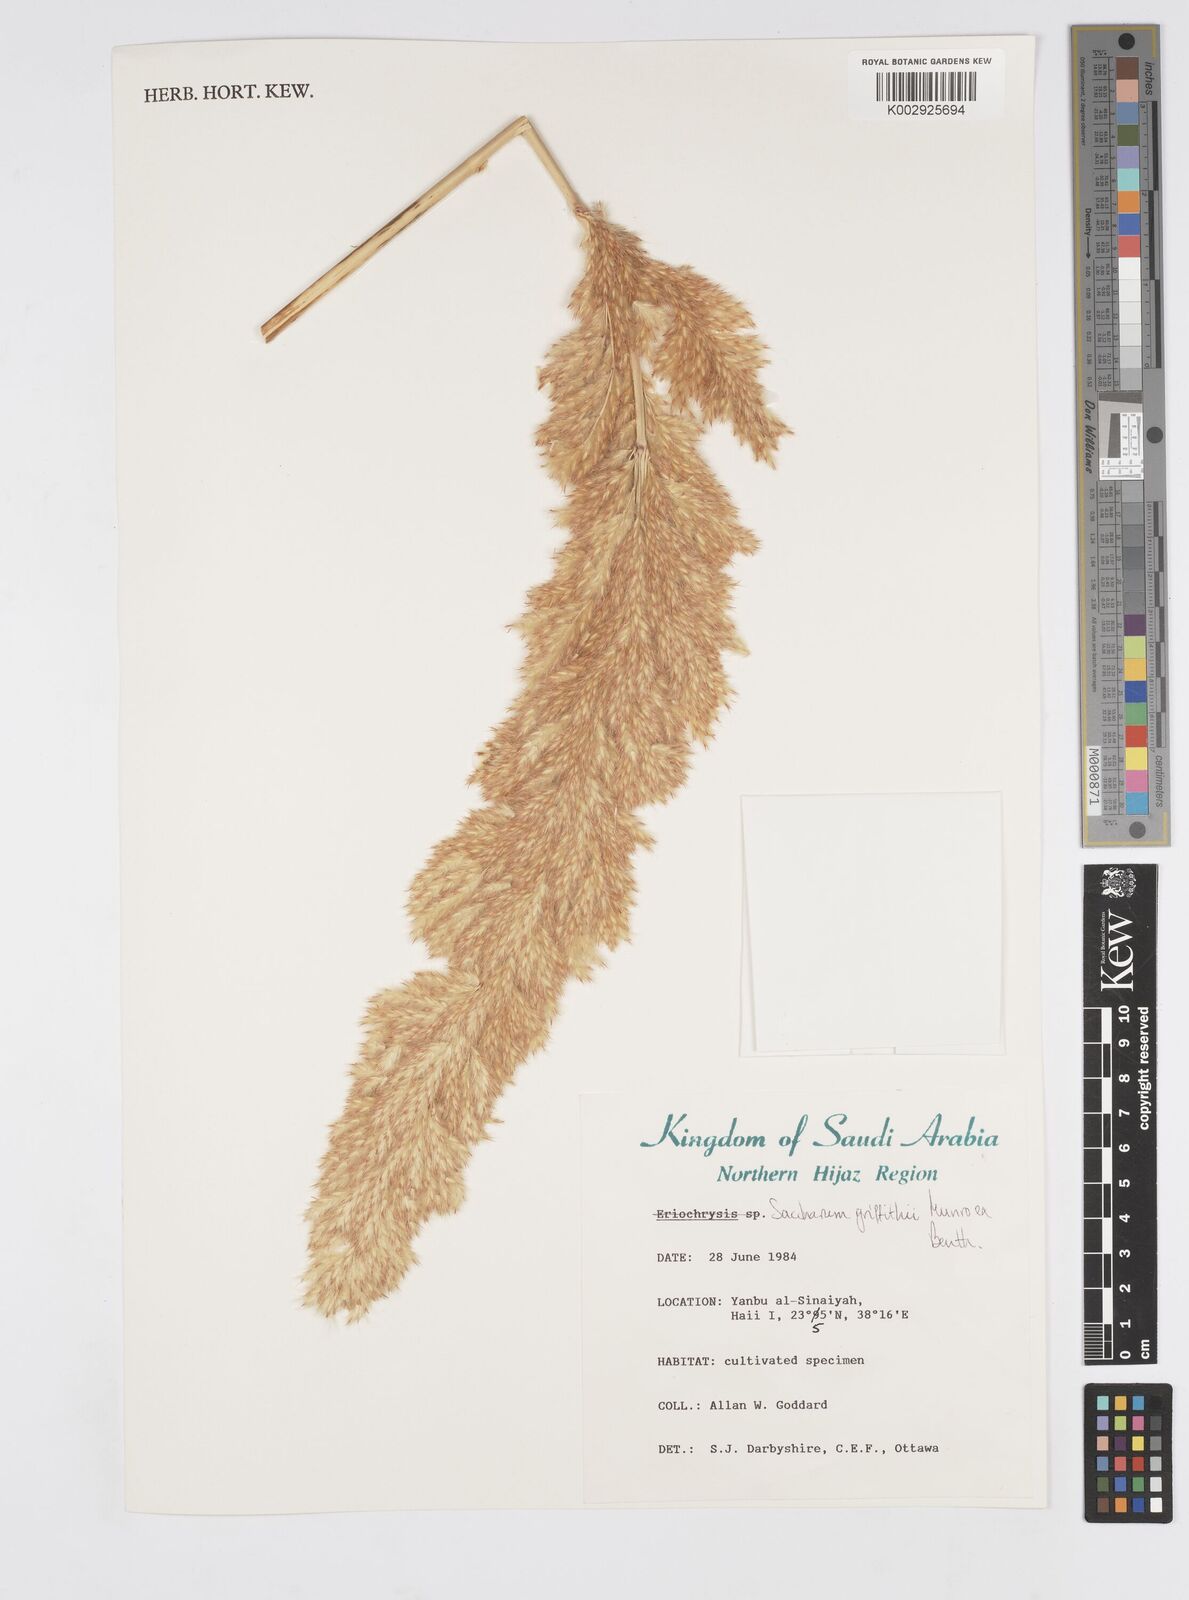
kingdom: Plantae
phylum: Tracheophyta
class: Liliopsida
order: Poales
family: Poaceae
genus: Saccharum
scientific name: Saccharum griffithii
